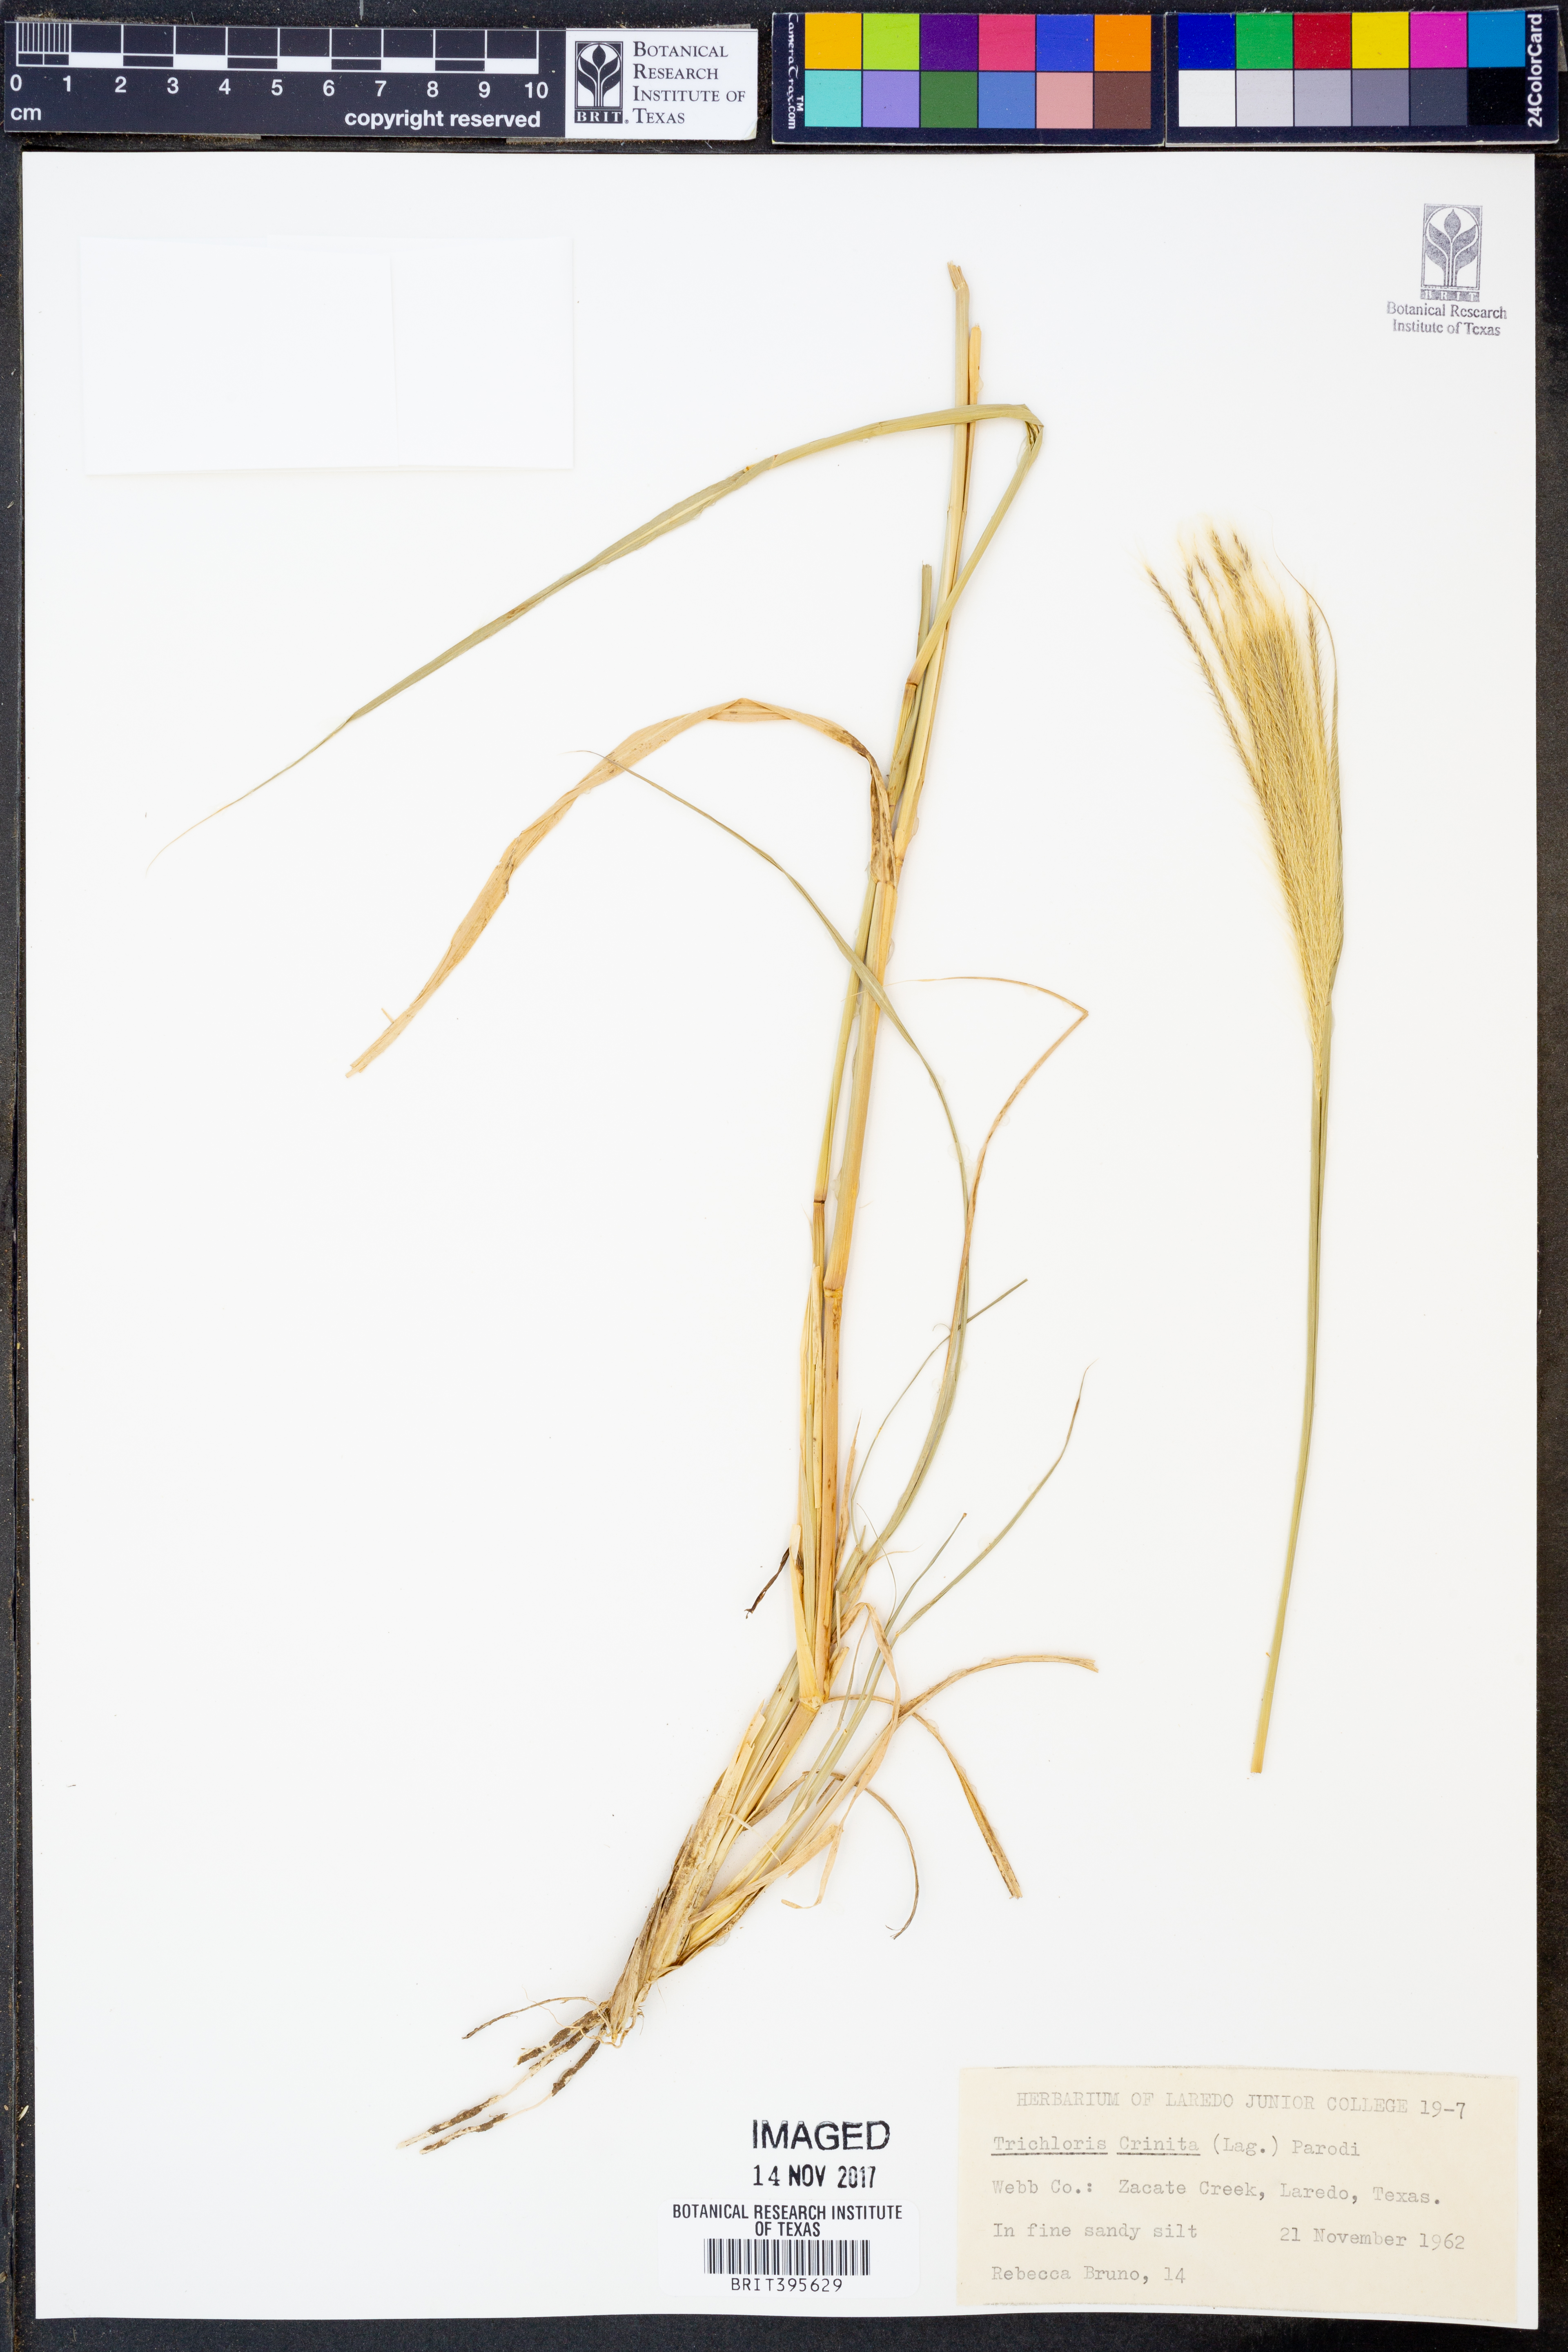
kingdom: Plantae
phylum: Tracheophyta
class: Liliopsida
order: Poales
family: Poaceae
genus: Leptochloa
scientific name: Leptochloa crinita
